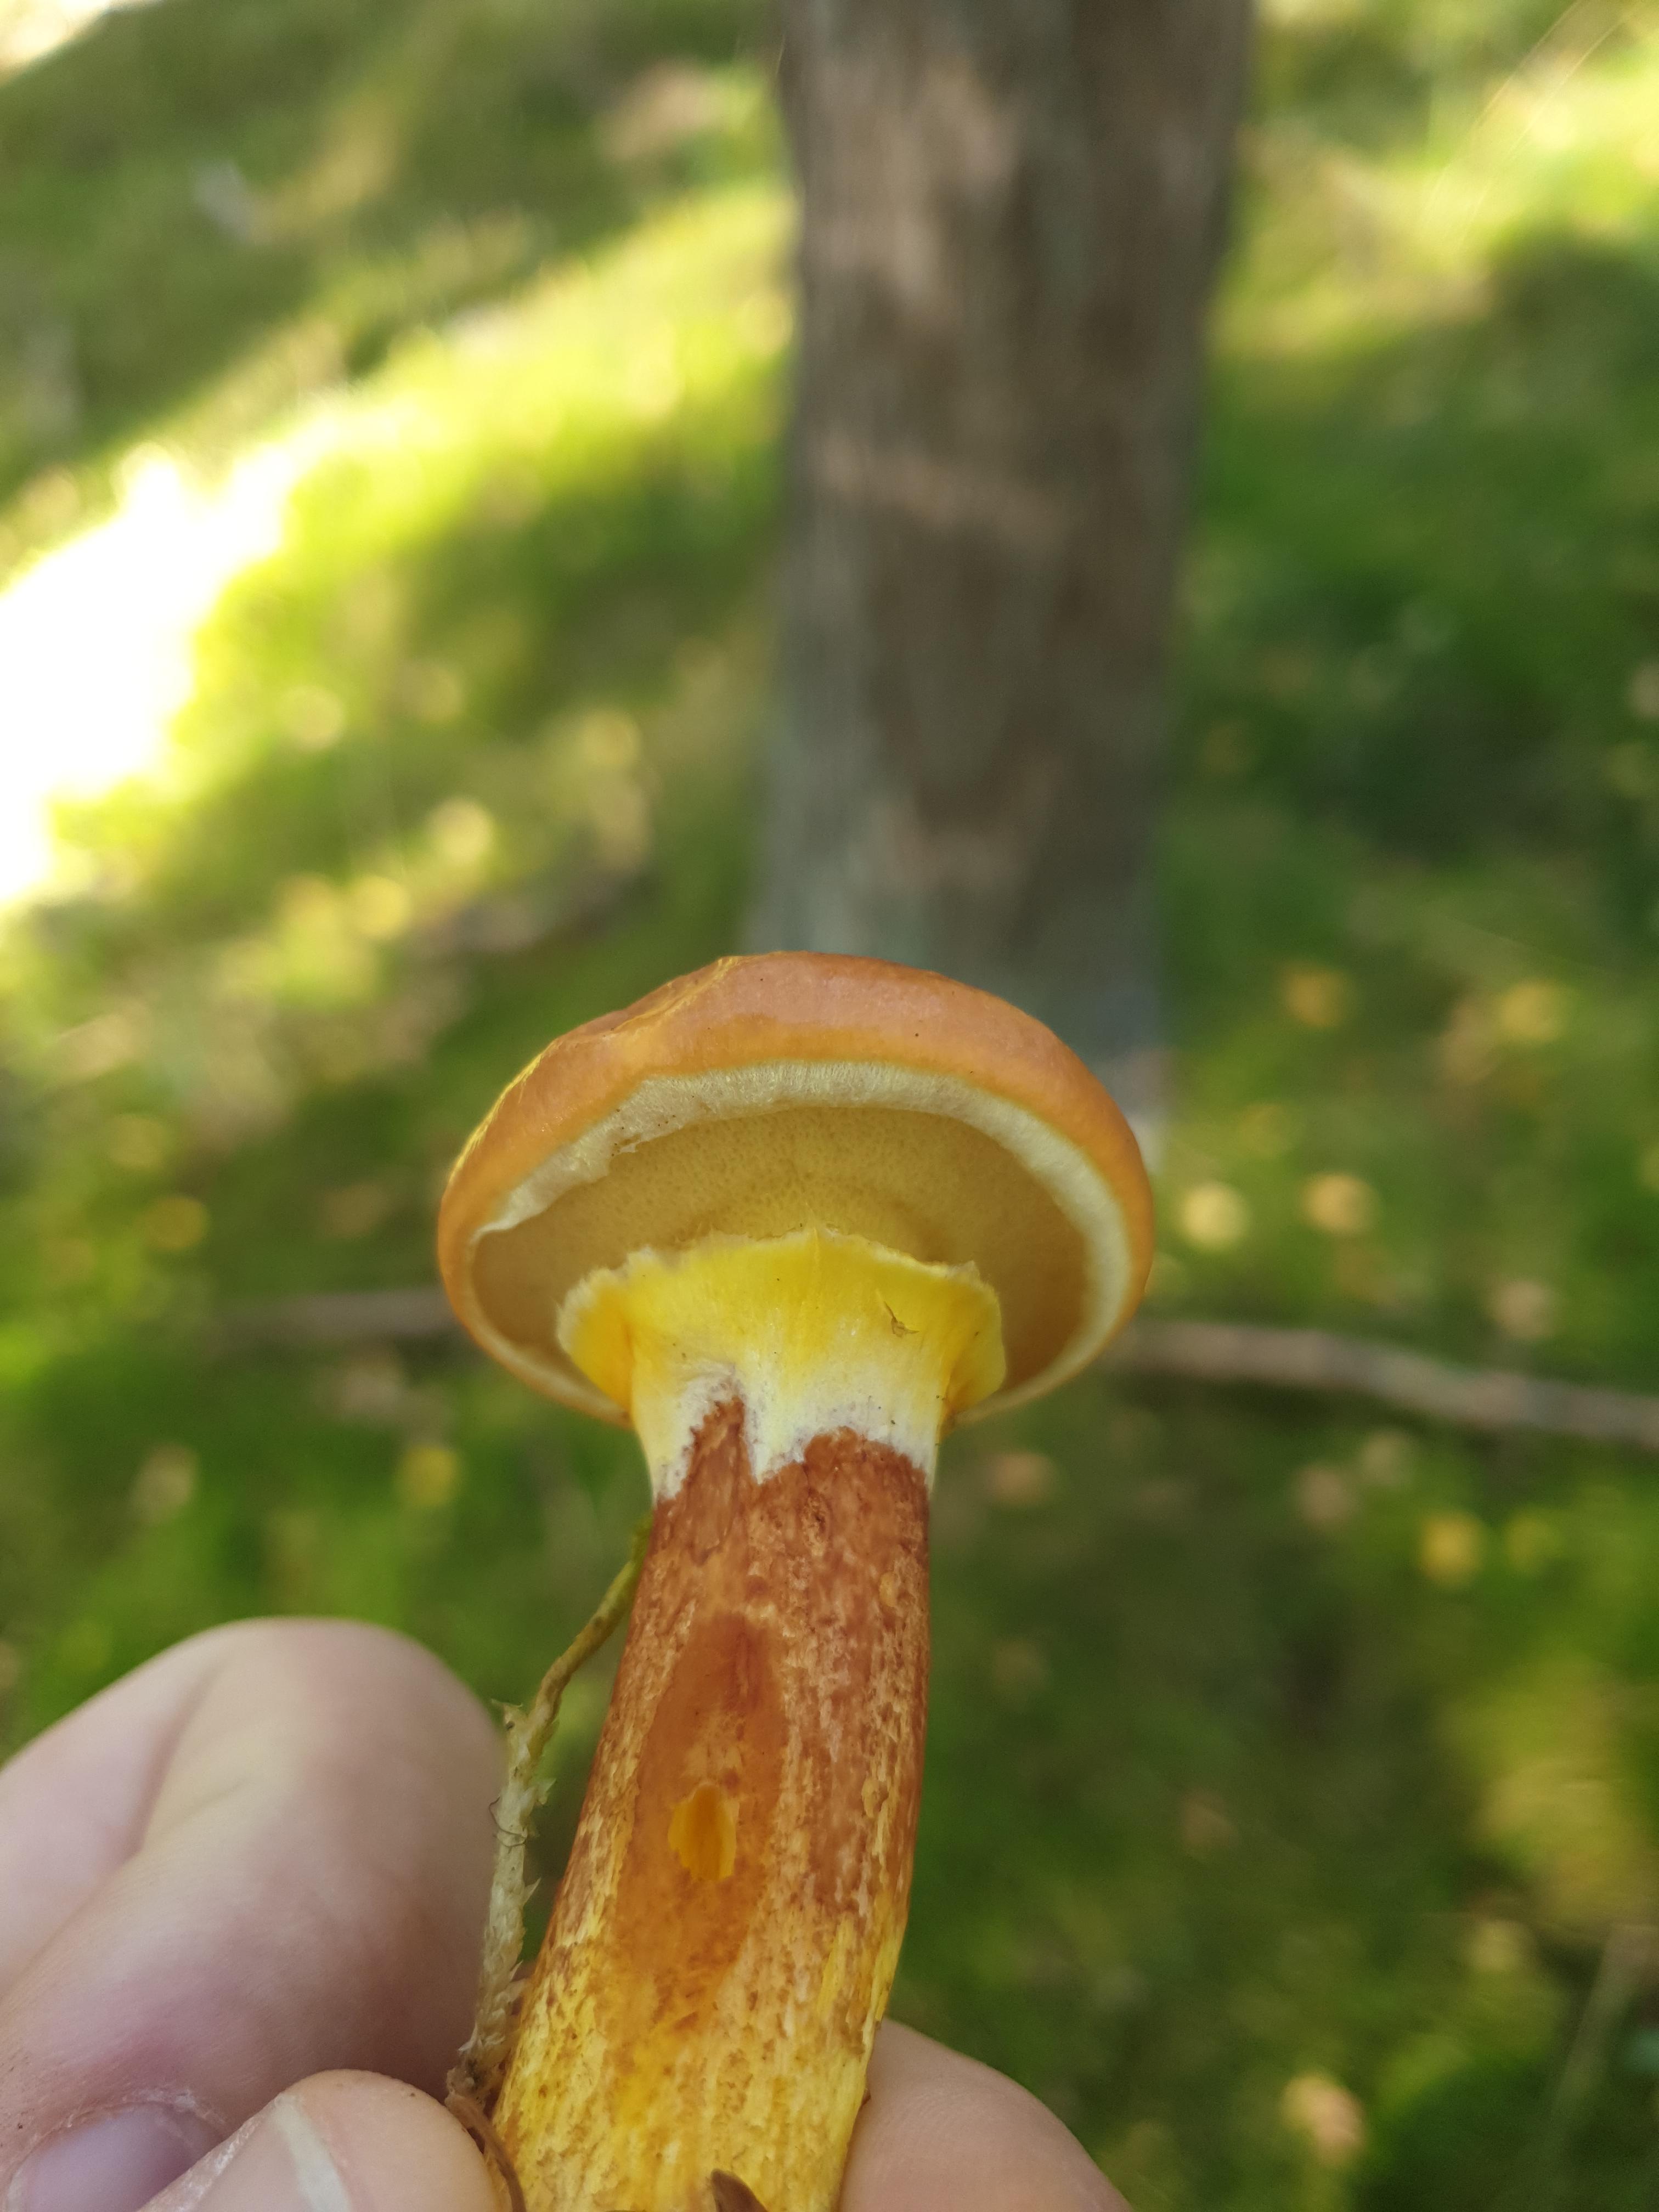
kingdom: Fungi
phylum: Basidiomycota
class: Agaricomycetes
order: Boletales
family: Suillaceae
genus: Suillus
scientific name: Suillus grevillei
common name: lærke-slimrørhat
